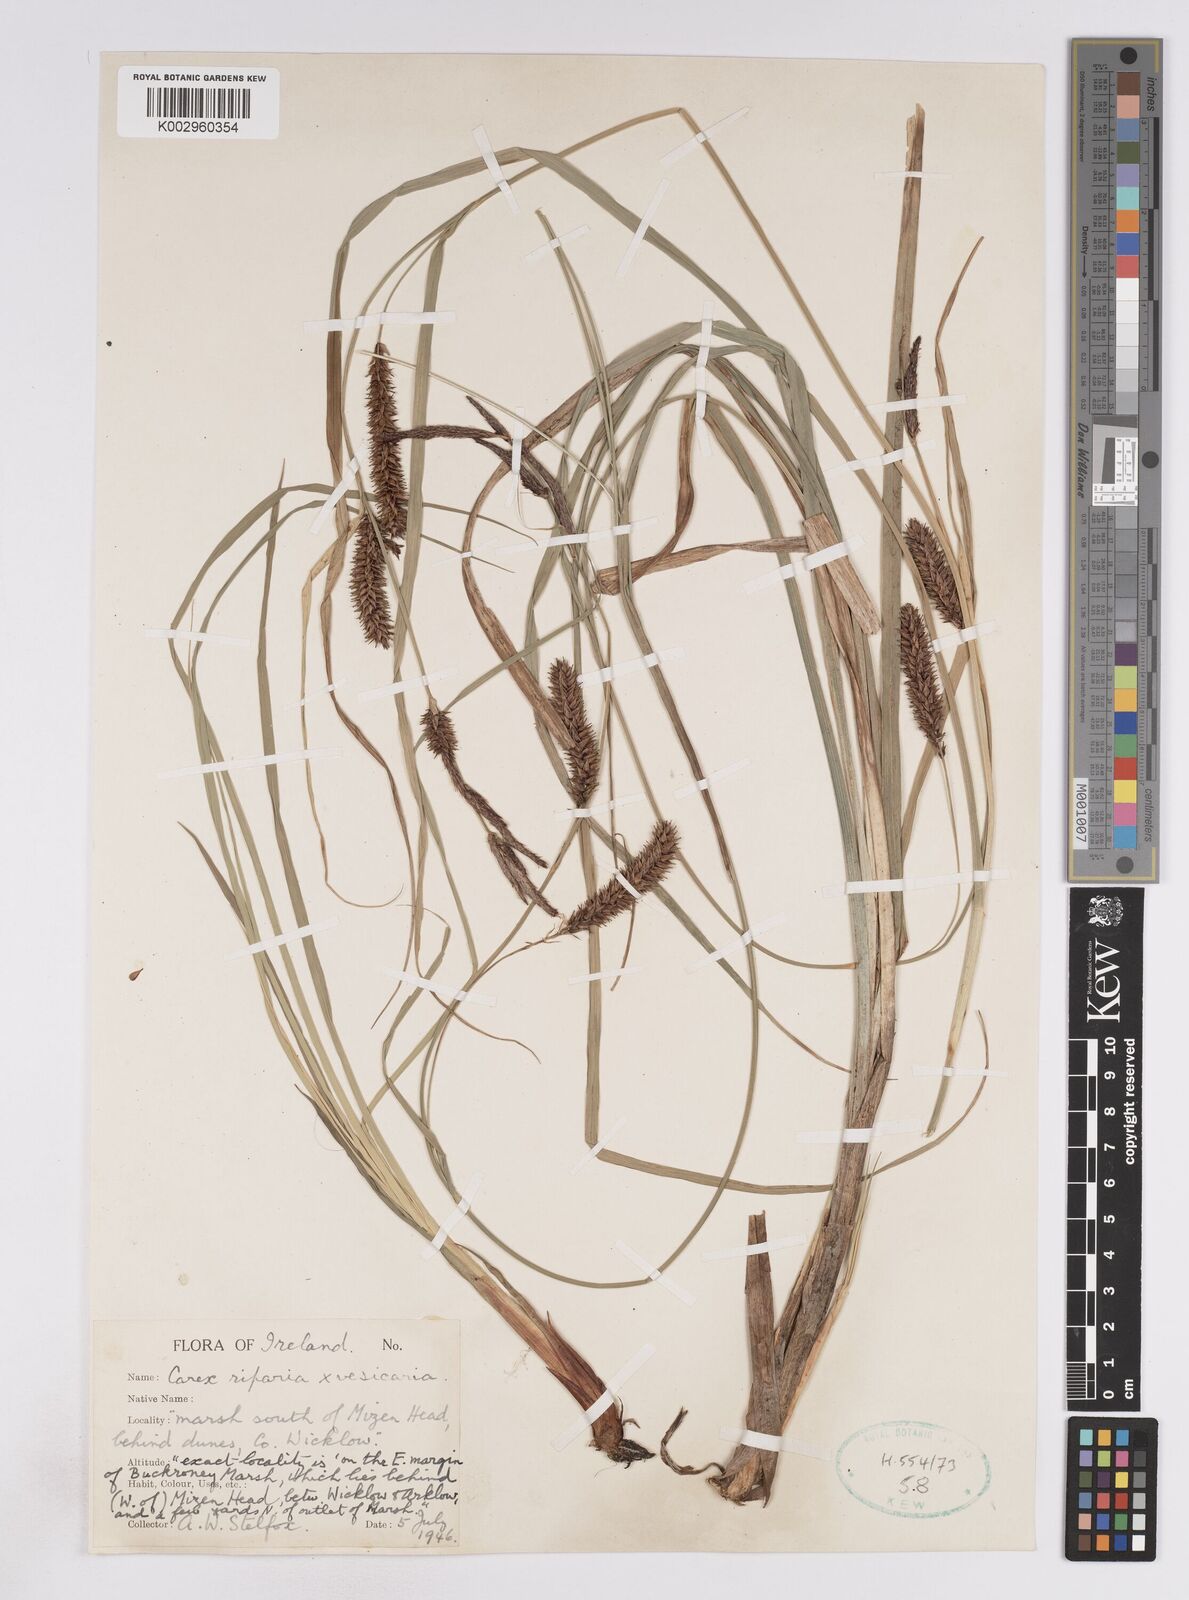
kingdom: Plantae
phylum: Tracheophyta
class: Liliopsida
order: Poales
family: Cyperaceae
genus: Carex
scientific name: Carex vesicaria
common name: Bladder-sedge
